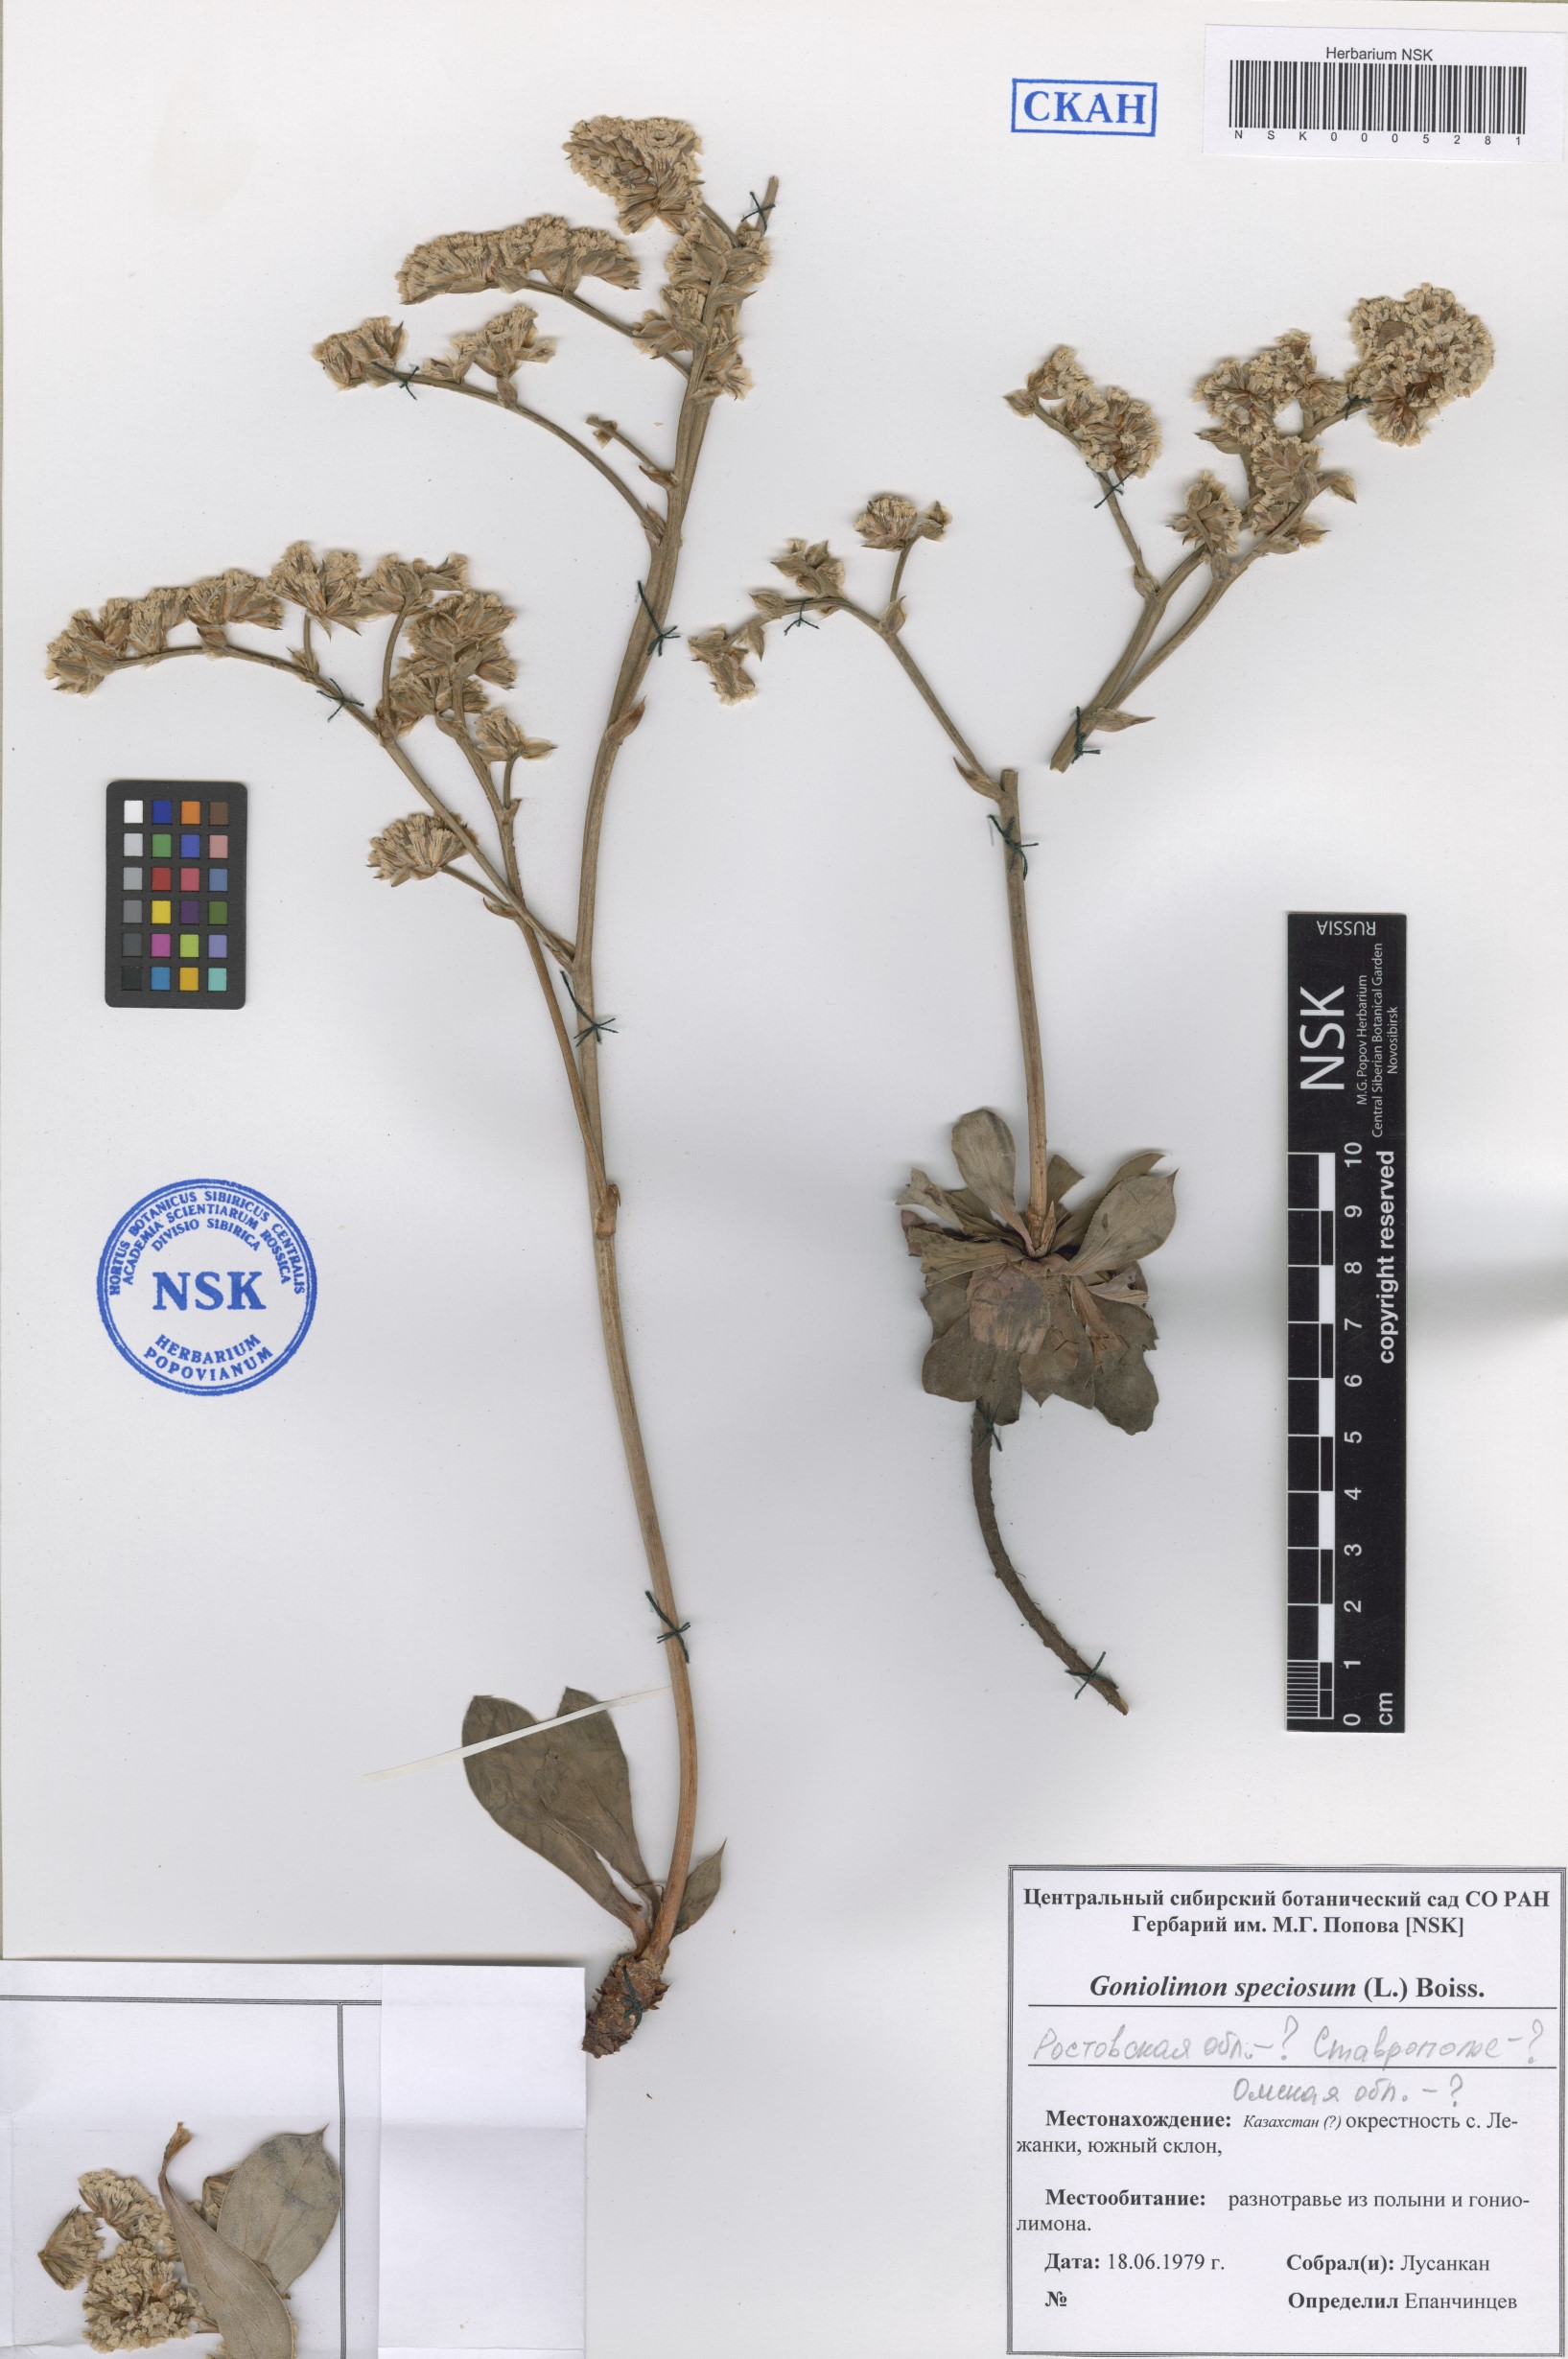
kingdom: Plantae
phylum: Tracheophyta
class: Magnoliopsida
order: Caryophyllales
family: Plumbaginaceae
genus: Goniolimon
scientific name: Goniolimon speciosum
